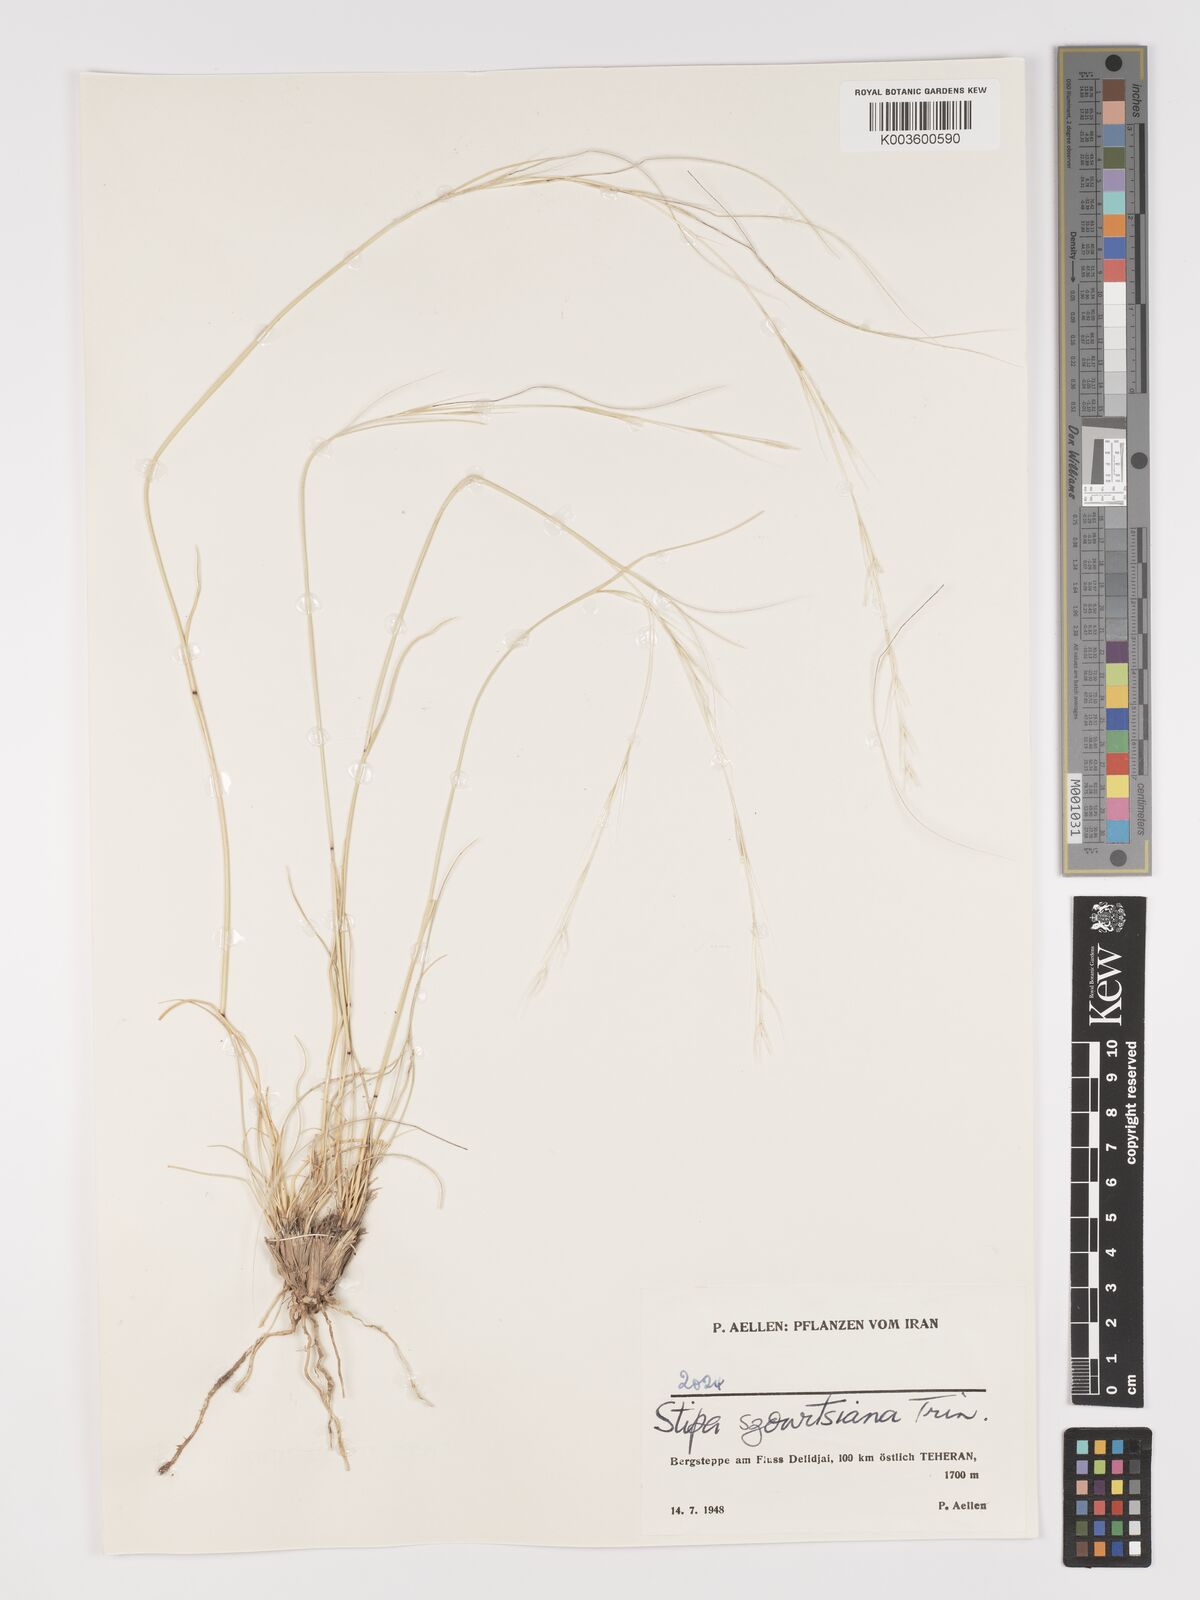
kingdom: Plantae
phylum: Tracheophyta
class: Liliopsida
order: Poales
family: Poaceae
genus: Stipa
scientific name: Stipa barbata
